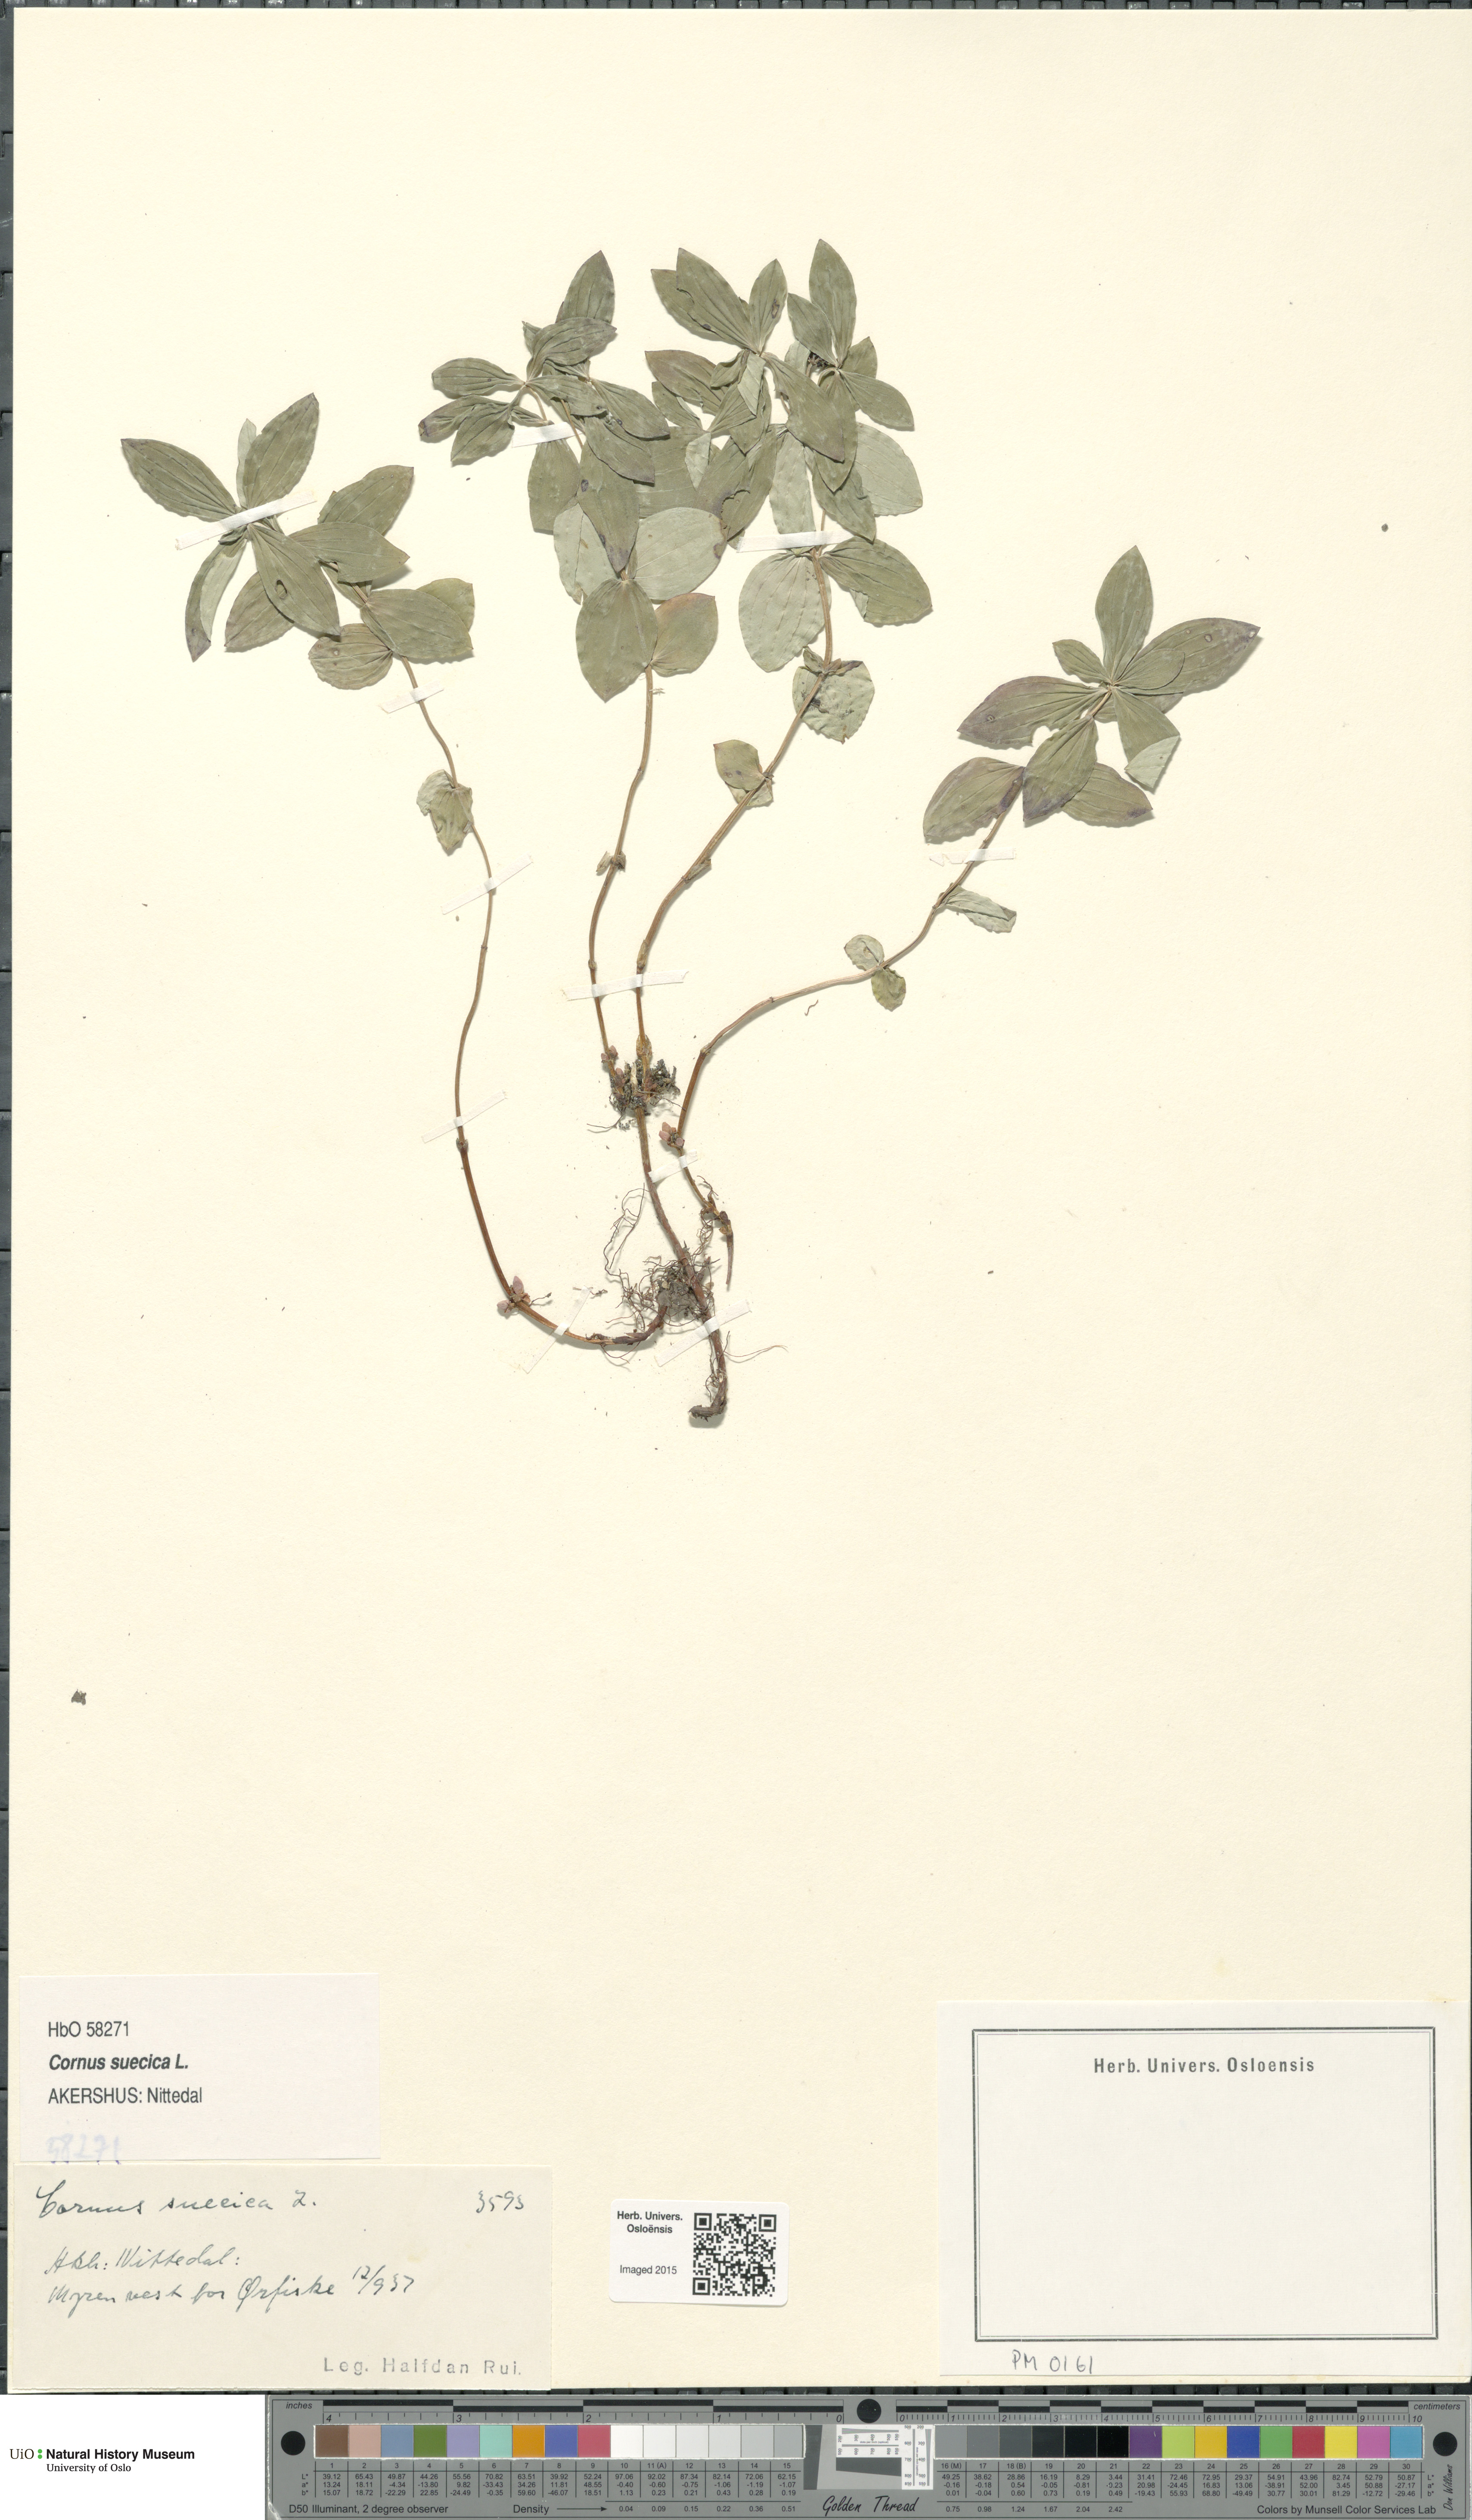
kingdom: Plantae
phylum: Tracheophyta
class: Magnoliopsida
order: Cornales
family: Cornaceae
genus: Cornus
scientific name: Cornus suecica
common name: Dwarf cornel
